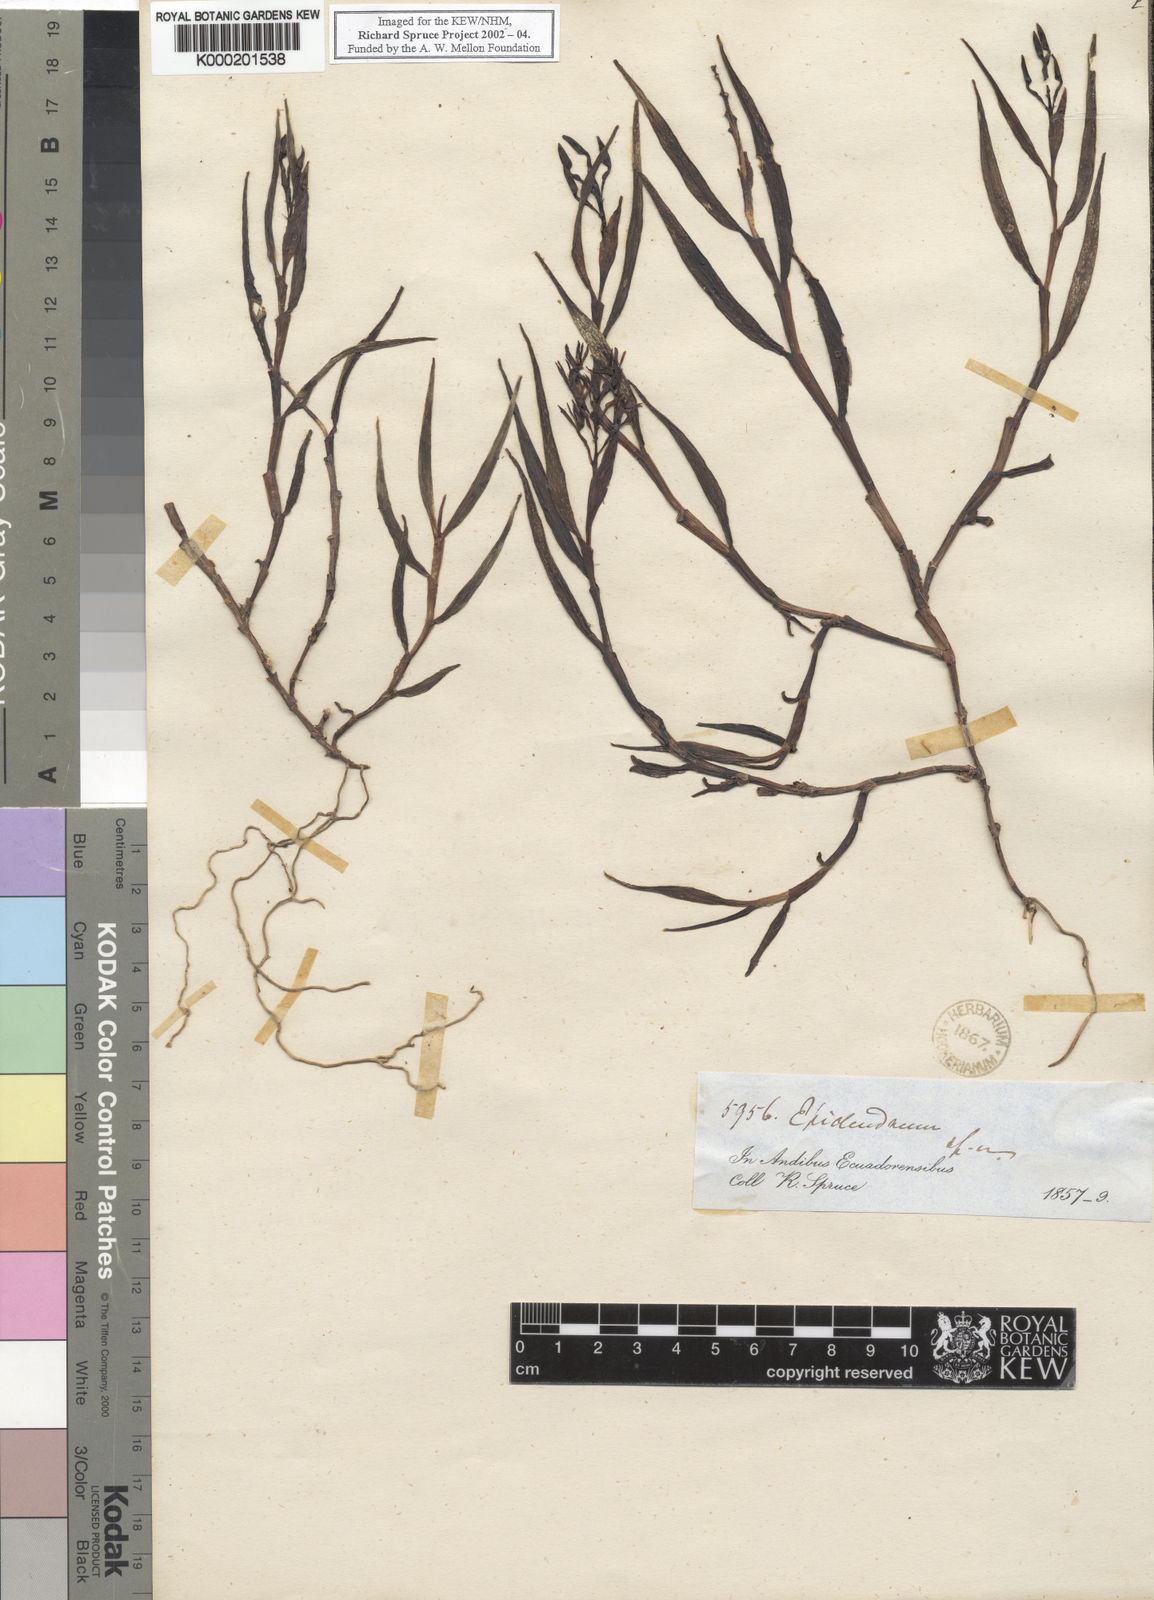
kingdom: Plantae
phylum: Tracheophyta
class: Liliopsida
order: Asparagales
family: Orchidaceae
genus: Epidendrum
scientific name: Epidendrum
